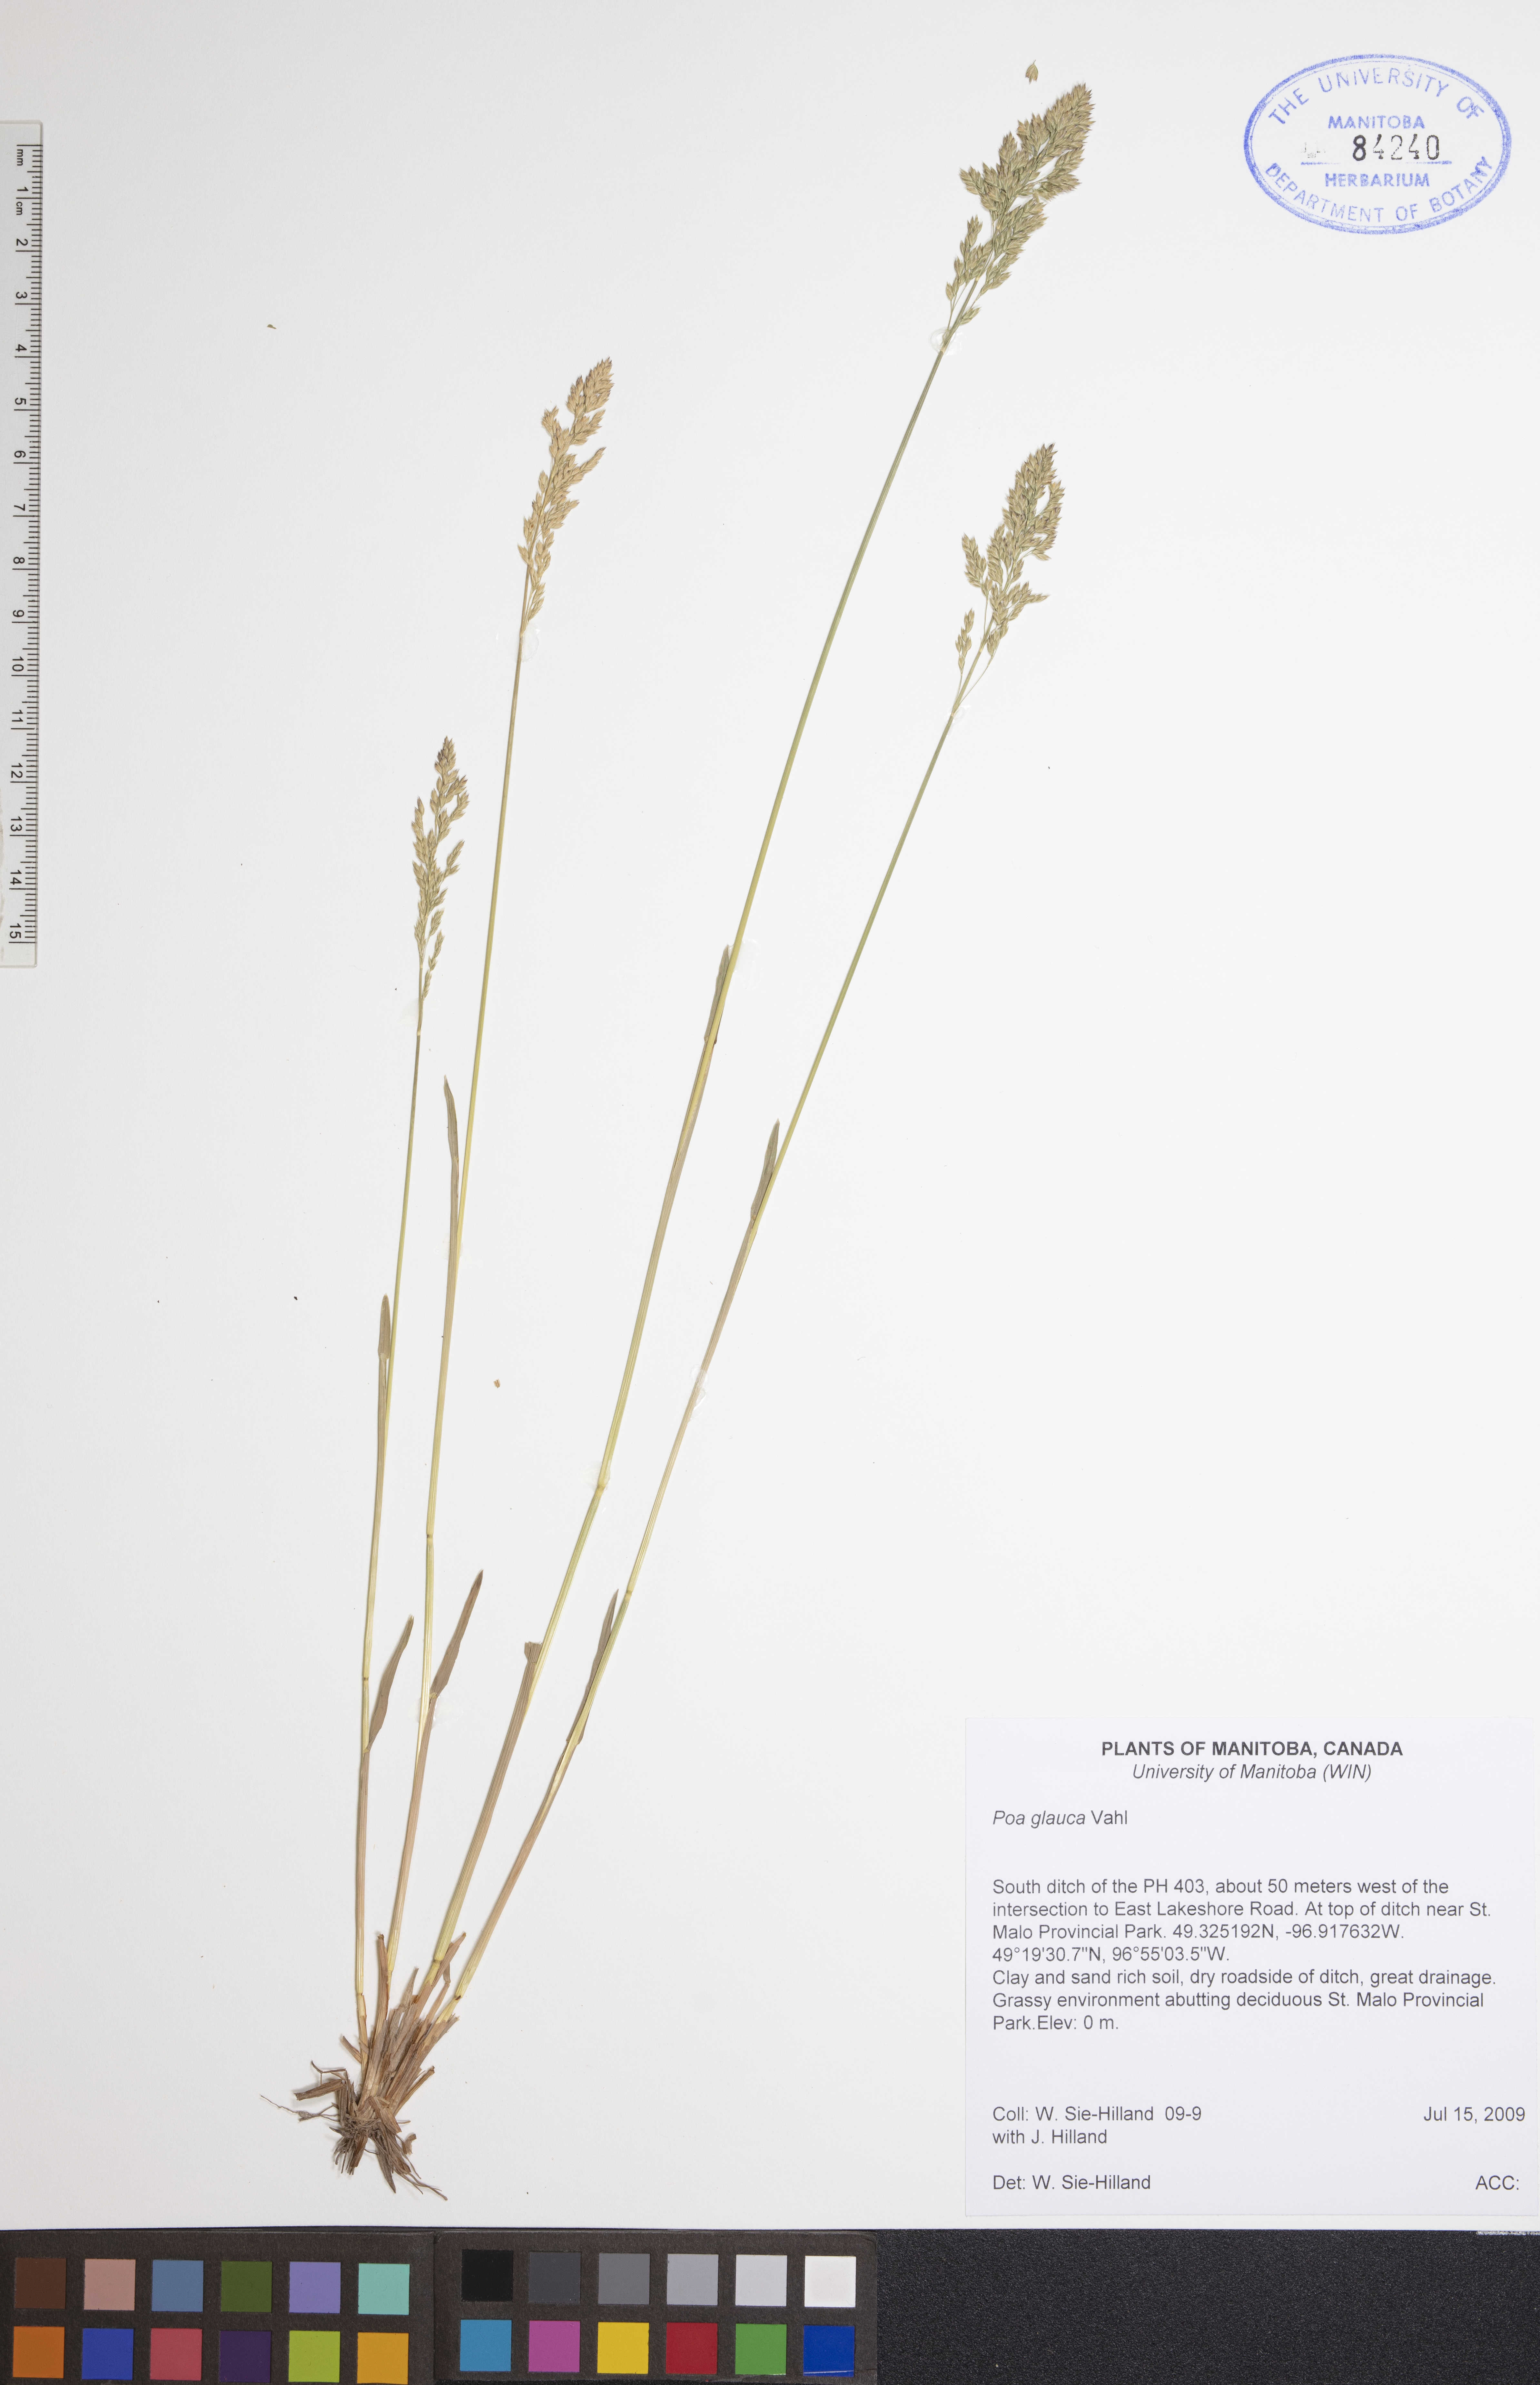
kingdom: Plantae
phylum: Tracheophyta
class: Liliopsida
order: Poales
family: Poaceae
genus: Poa
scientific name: Poa glauca
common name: Glaucous bluegrass
